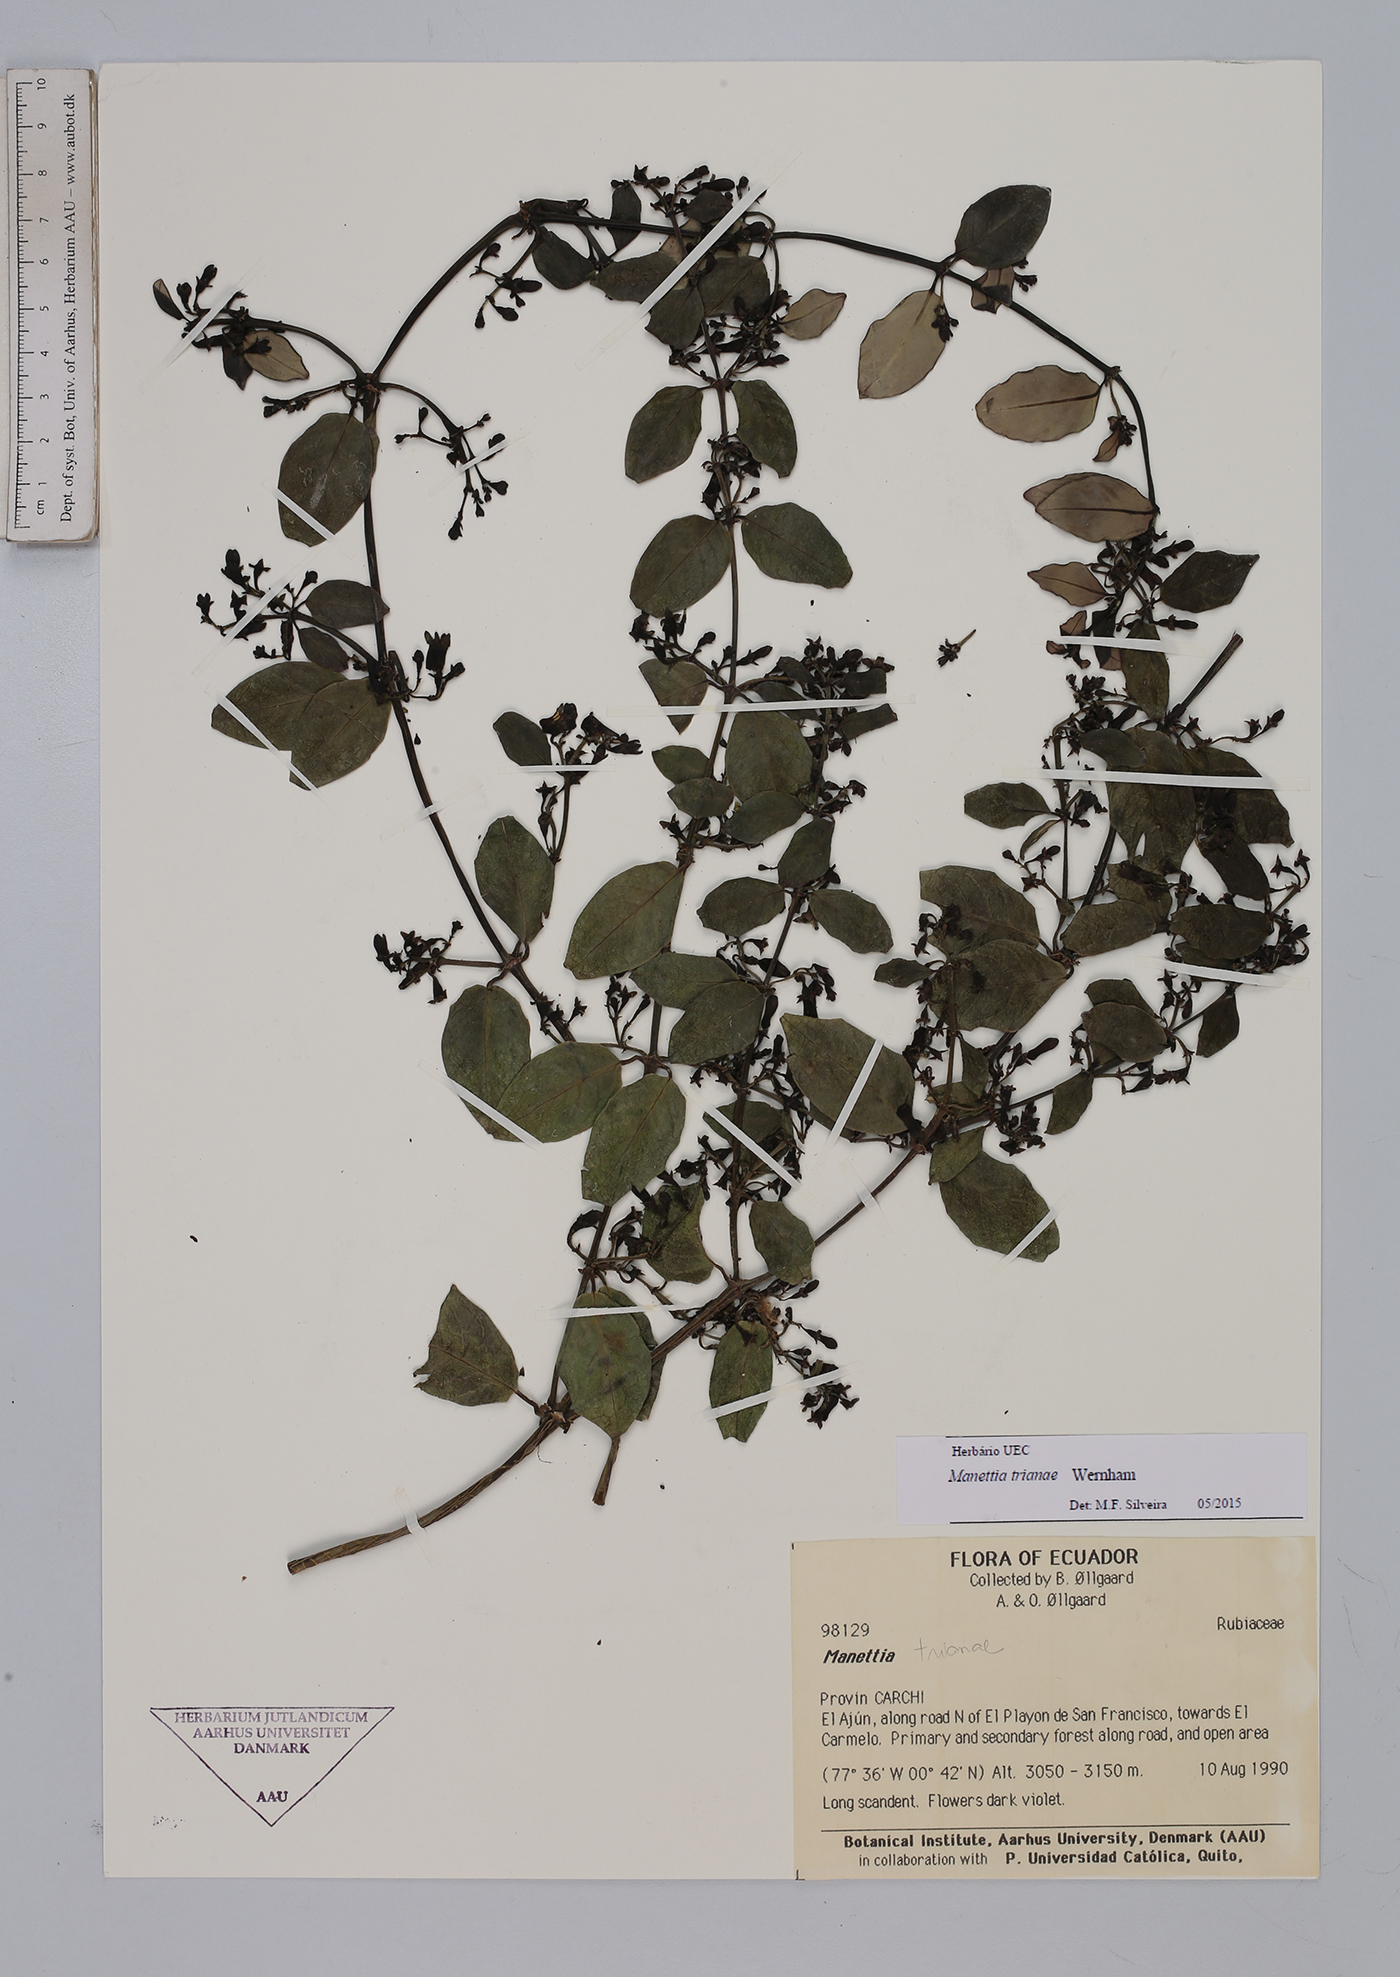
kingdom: Plantae
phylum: Tracheophyta
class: Magnoliopsida
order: Gentianales
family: Rubiaceae
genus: Manettia
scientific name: Manettia trianae
